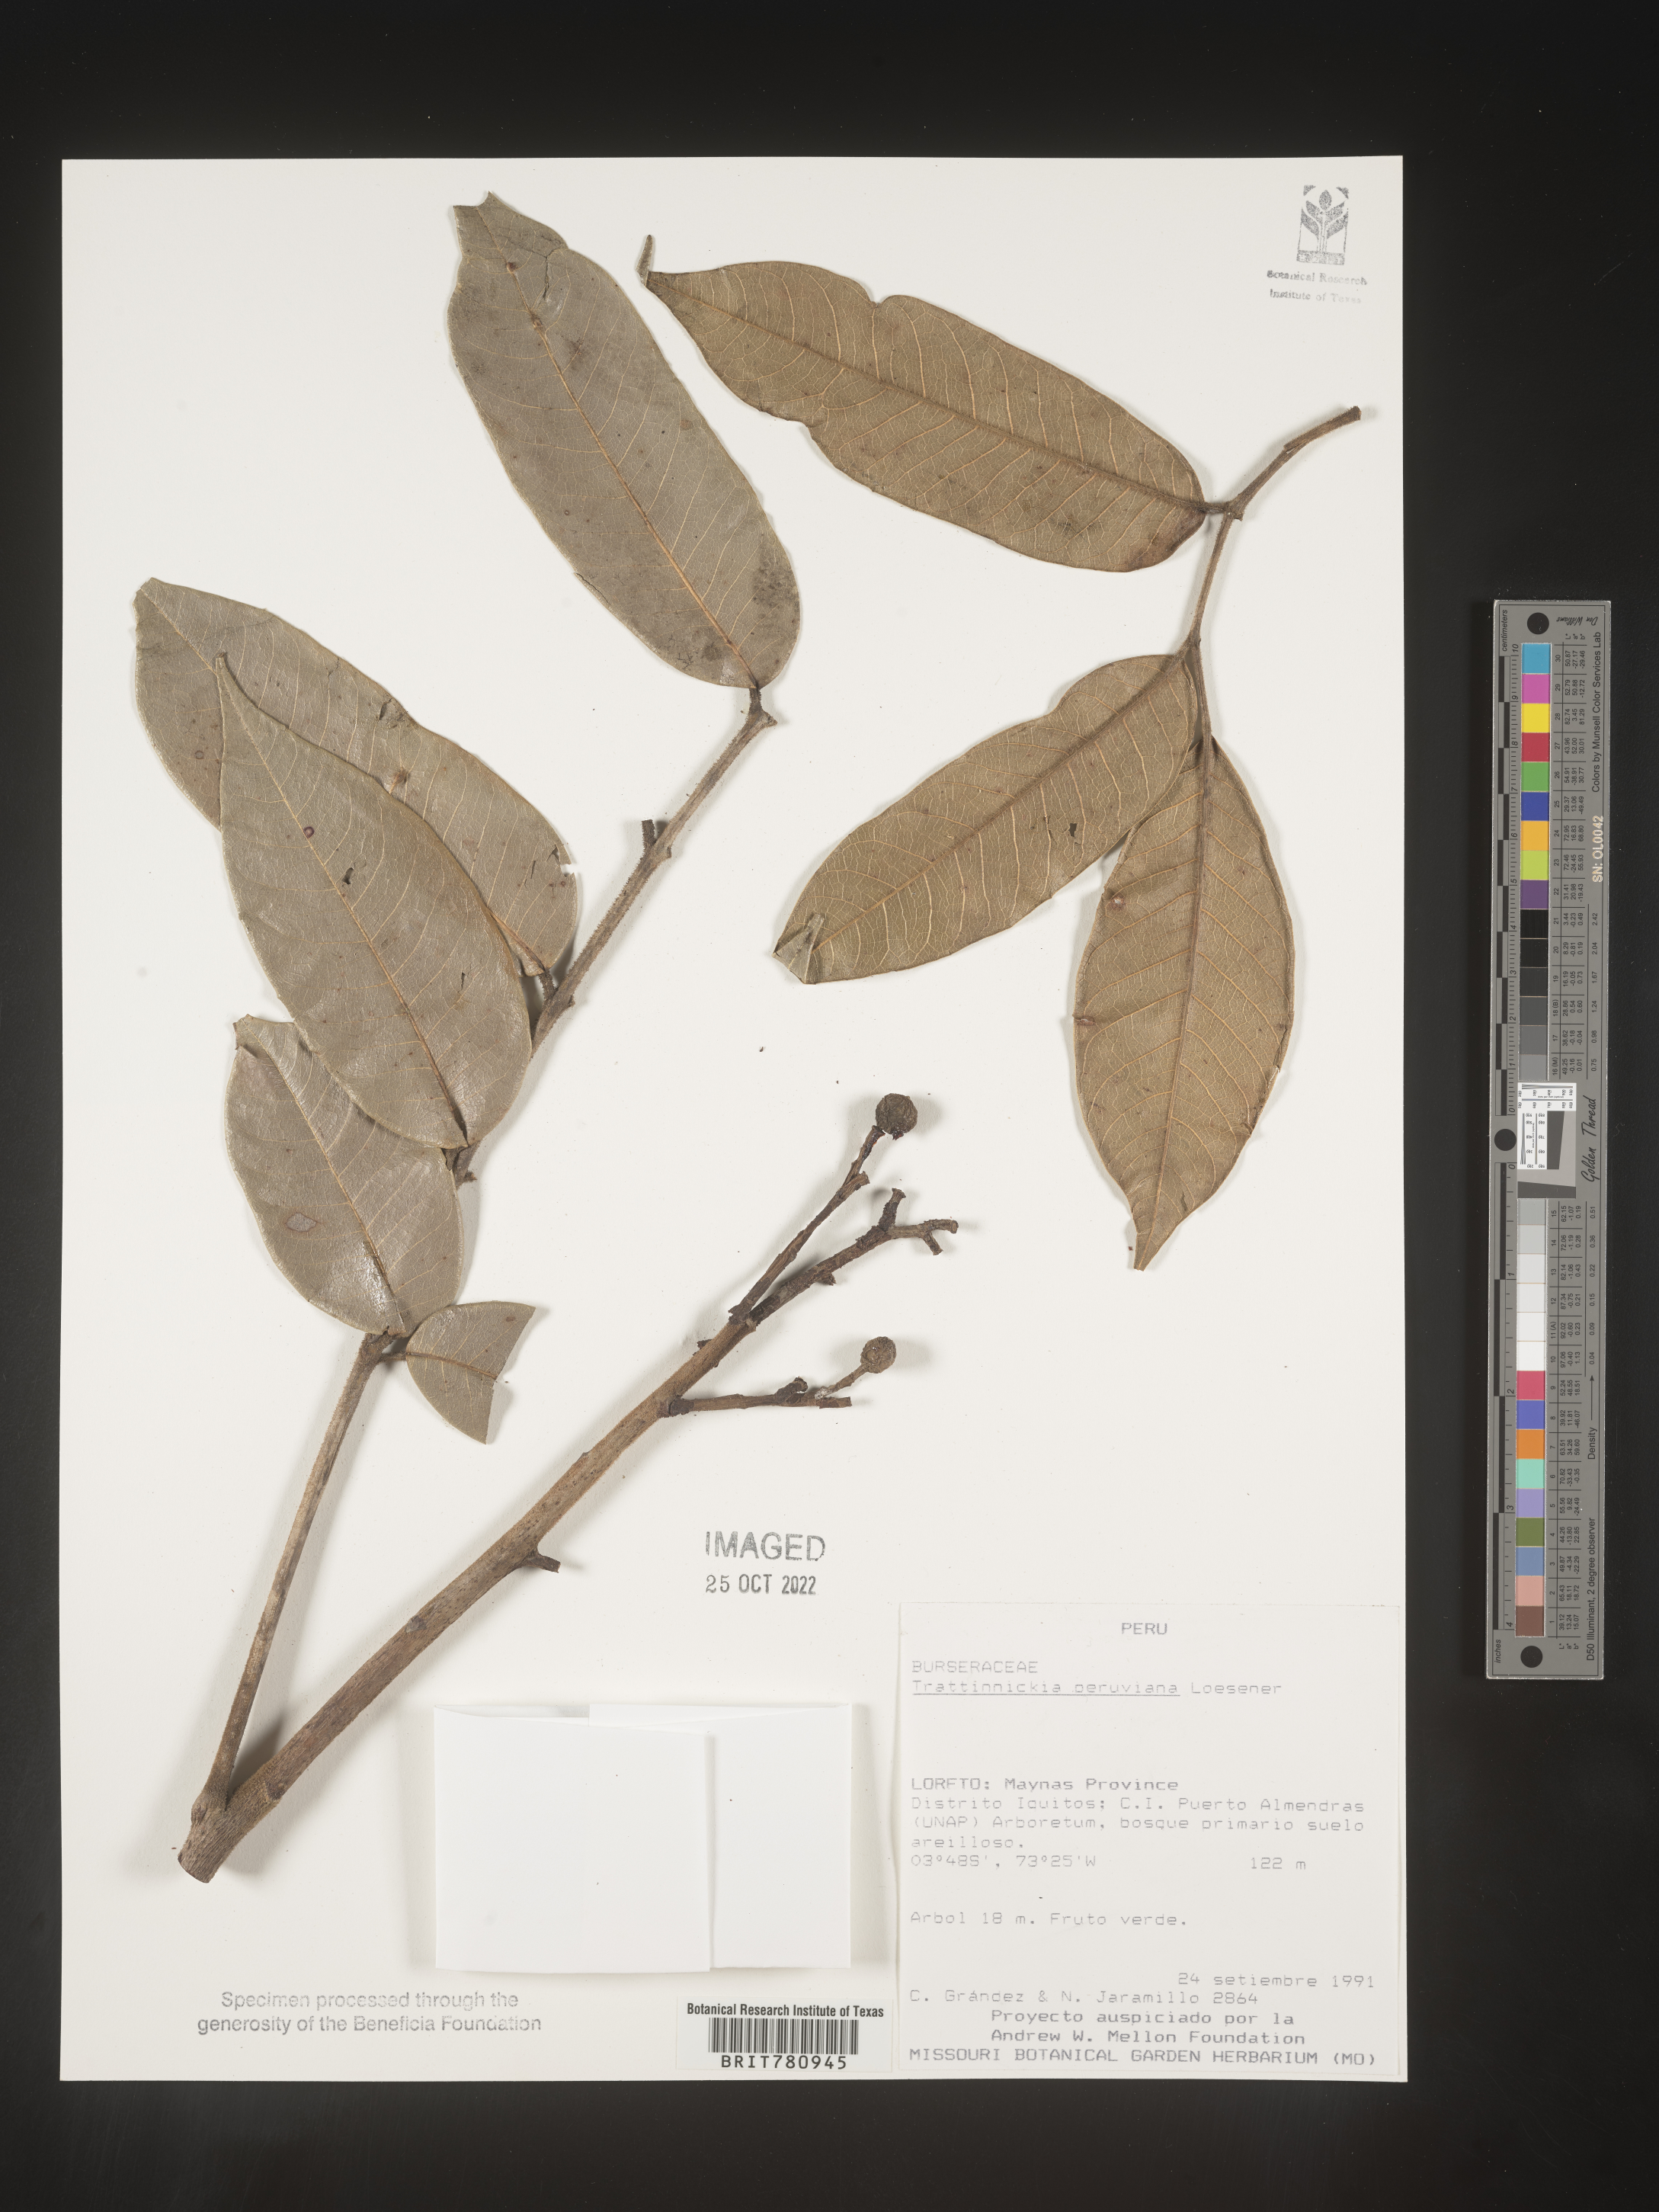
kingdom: Plantae
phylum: Tracheophyta
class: Magnoliopsida
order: Sapindales
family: Burseraceae
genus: Trattinnickia
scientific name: Trattinnickia
